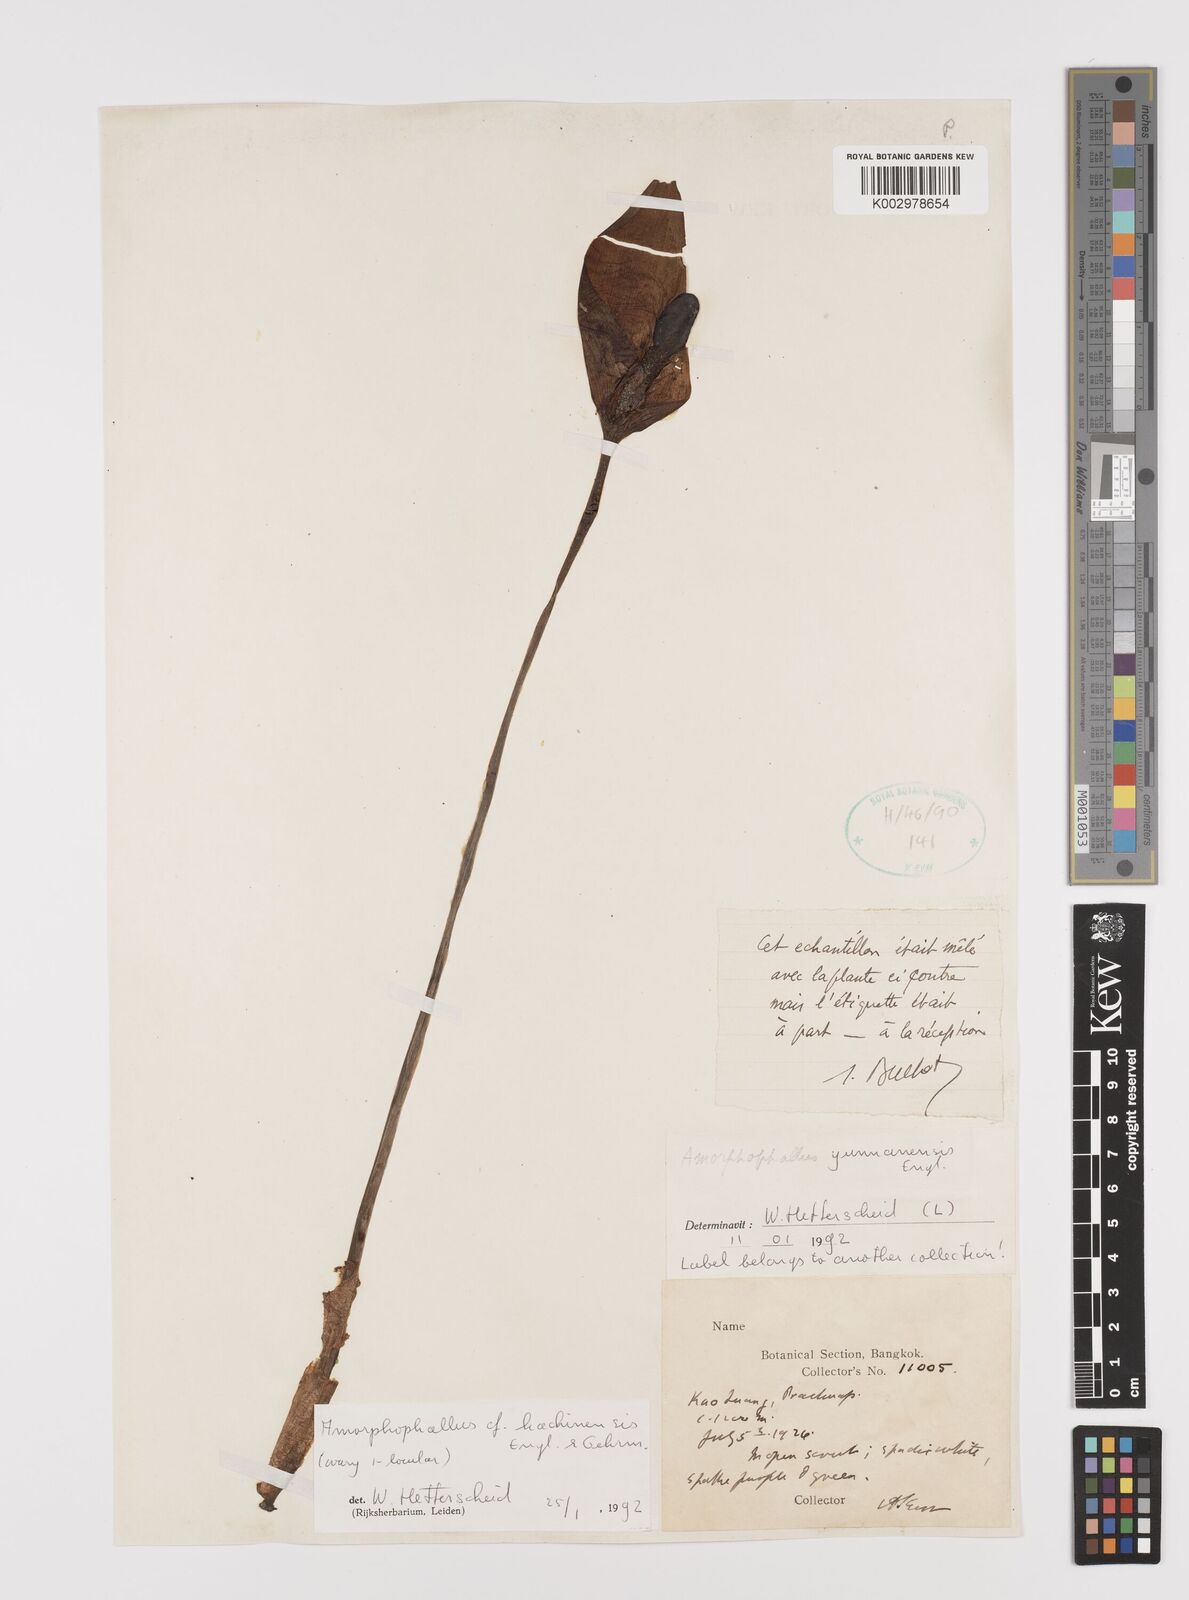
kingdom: Plantae
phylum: Tracheophyta
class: Liliopsida
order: Alismatales
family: Araceae
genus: Amorphophallus
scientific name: Amorphophallus kachinensis
